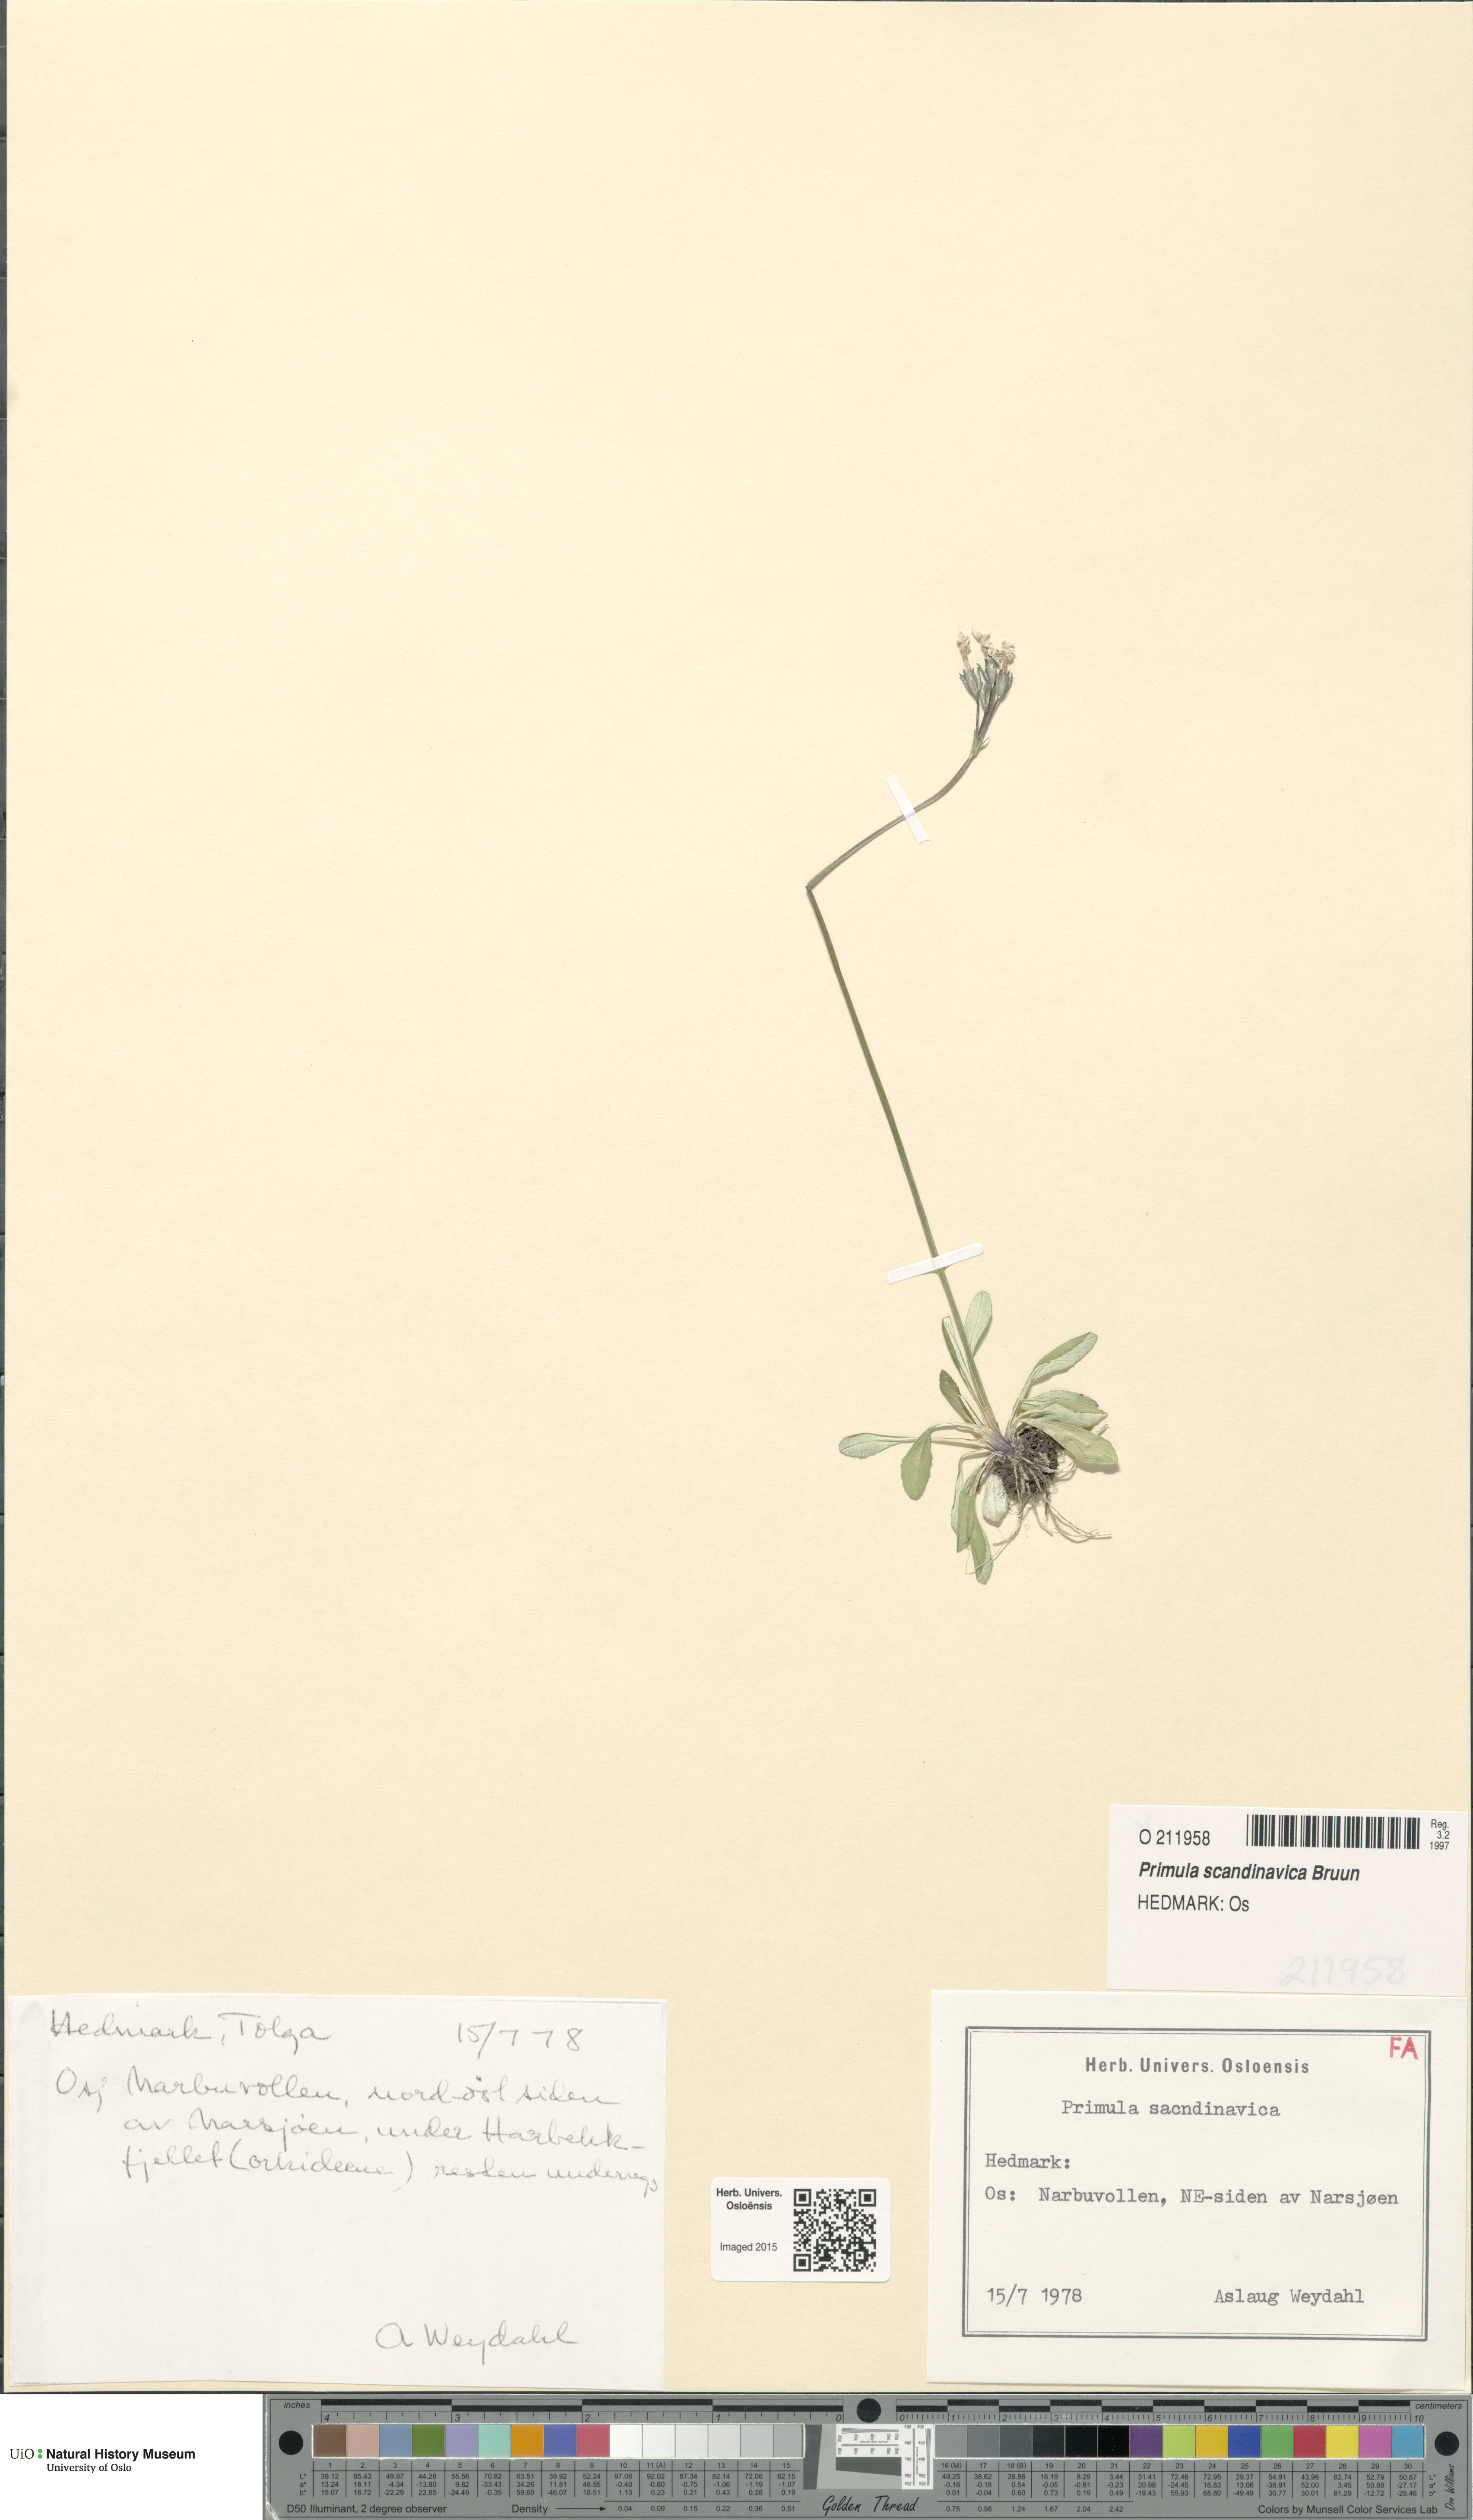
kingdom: Plantae
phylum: Tracheophyta
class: Magnoliopsida
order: Ericales
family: Primulaceae
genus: Primula
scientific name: Primula scandinavica
